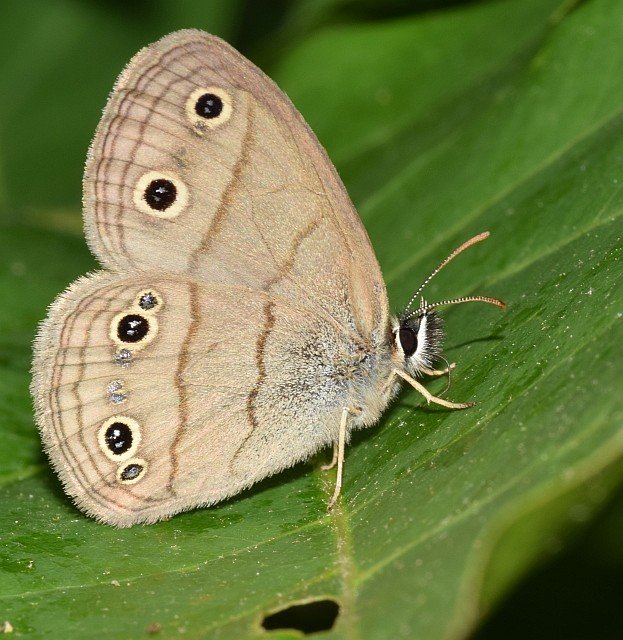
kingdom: Animalia
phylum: Arthropoda
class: Insecta
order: Lepidoptera
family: Nymphalidae
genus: Euptychia
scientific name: Euptychia cymela
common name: Little Wood Satyr
